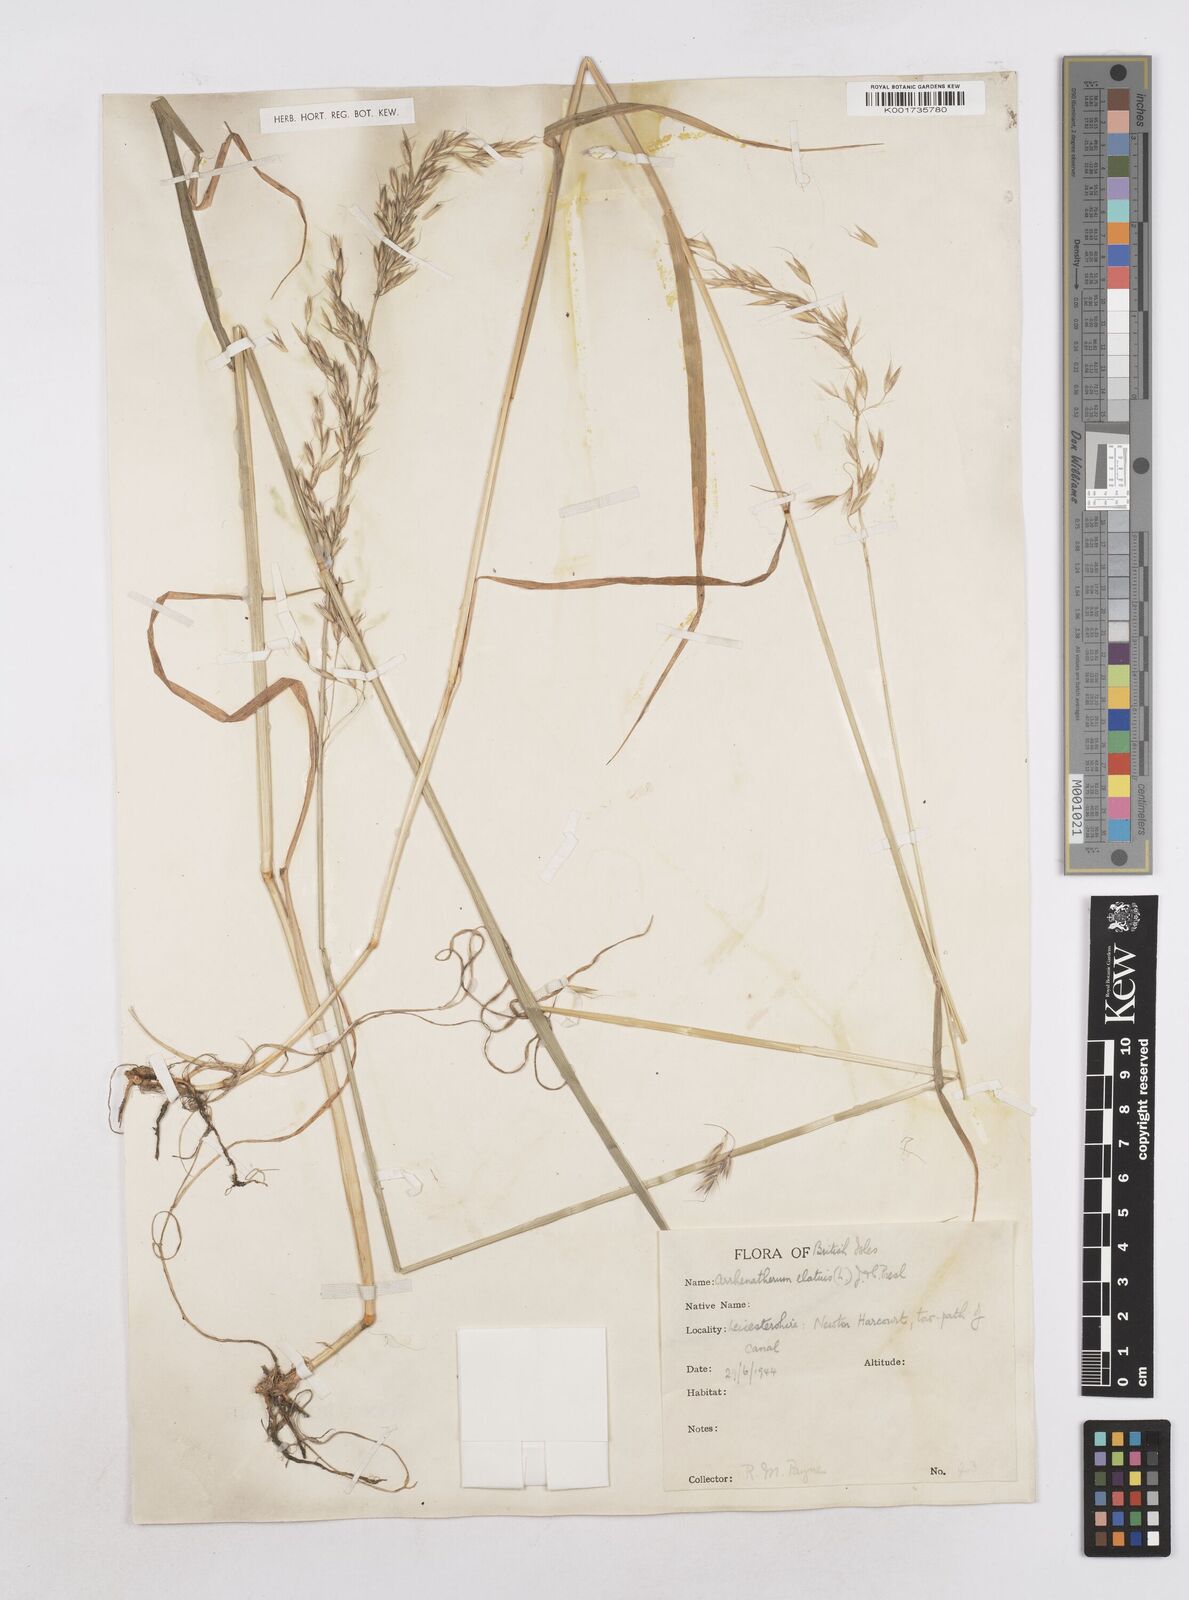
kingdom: Plantae
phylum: Tracheophyta
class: Liliopsida
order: Poales
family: Poaceae
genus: Arrhenatherum
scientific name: Arrhenatherum elatius
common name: Tall oatgrass
